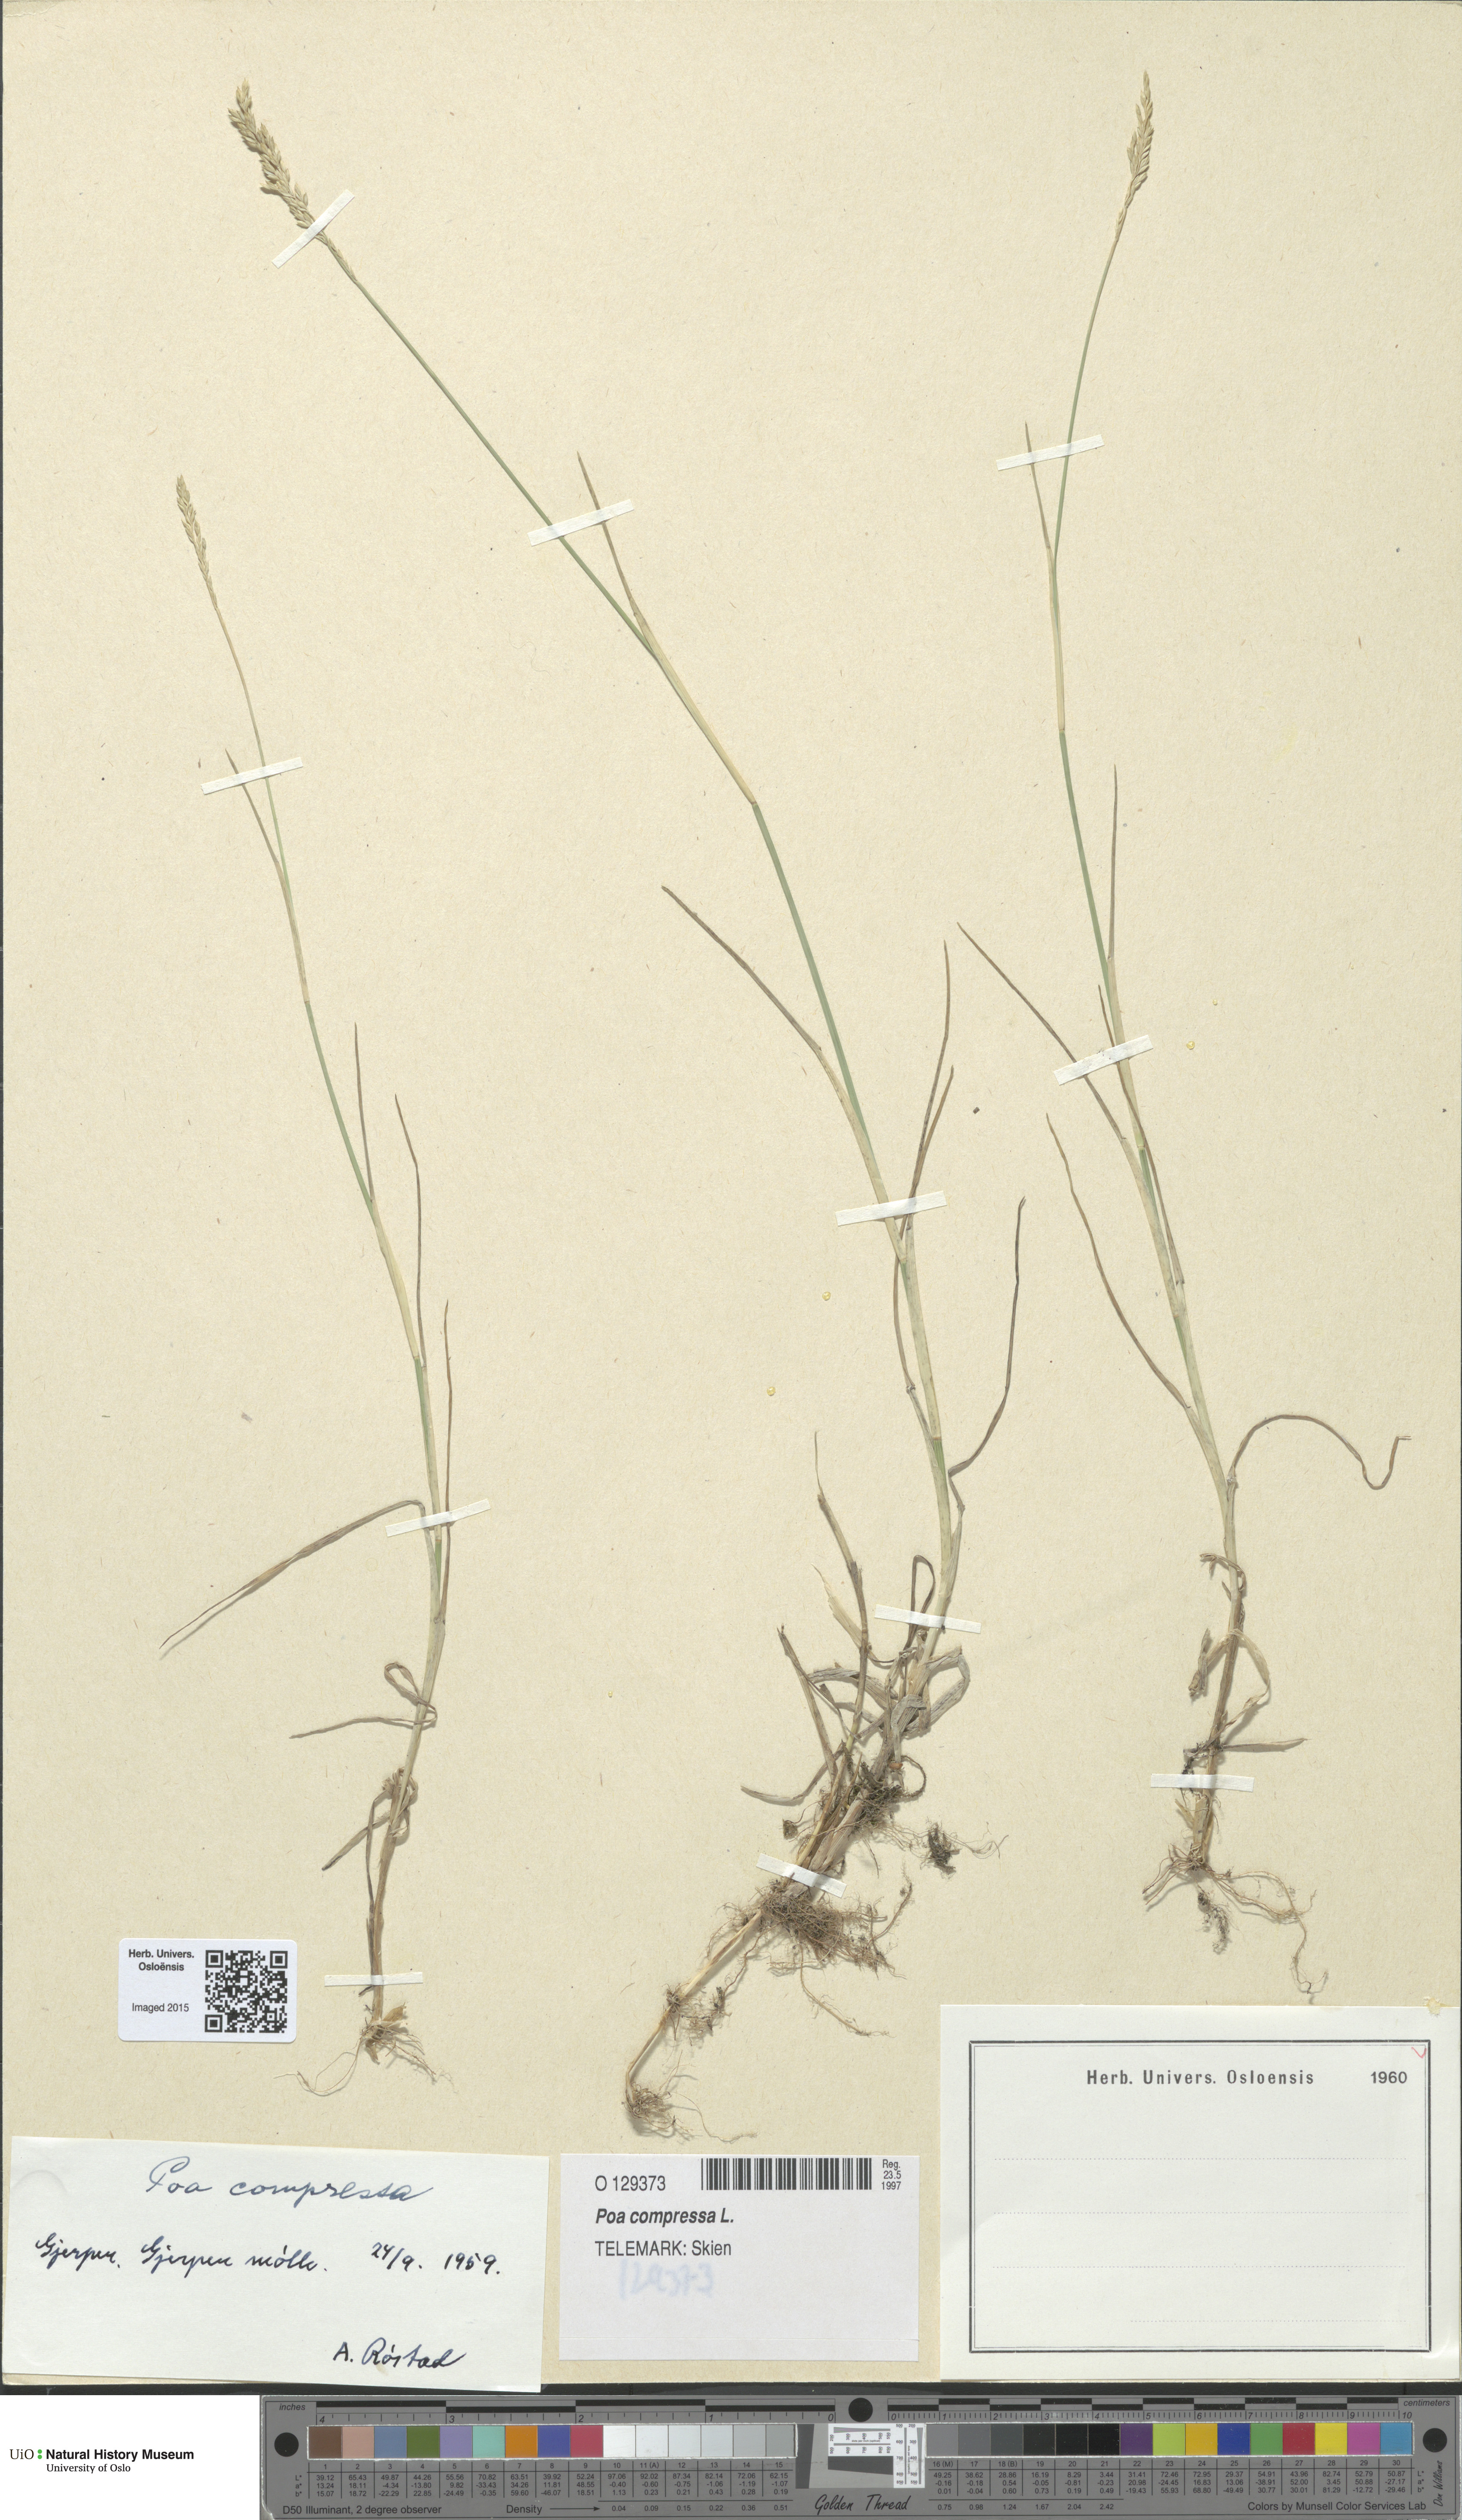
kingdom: Plantae
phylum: Tracheophyta
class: Liliopsida
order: Poales
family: Poaceae
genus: Poa
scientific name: Poa compressa
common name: Canada bluegrass
